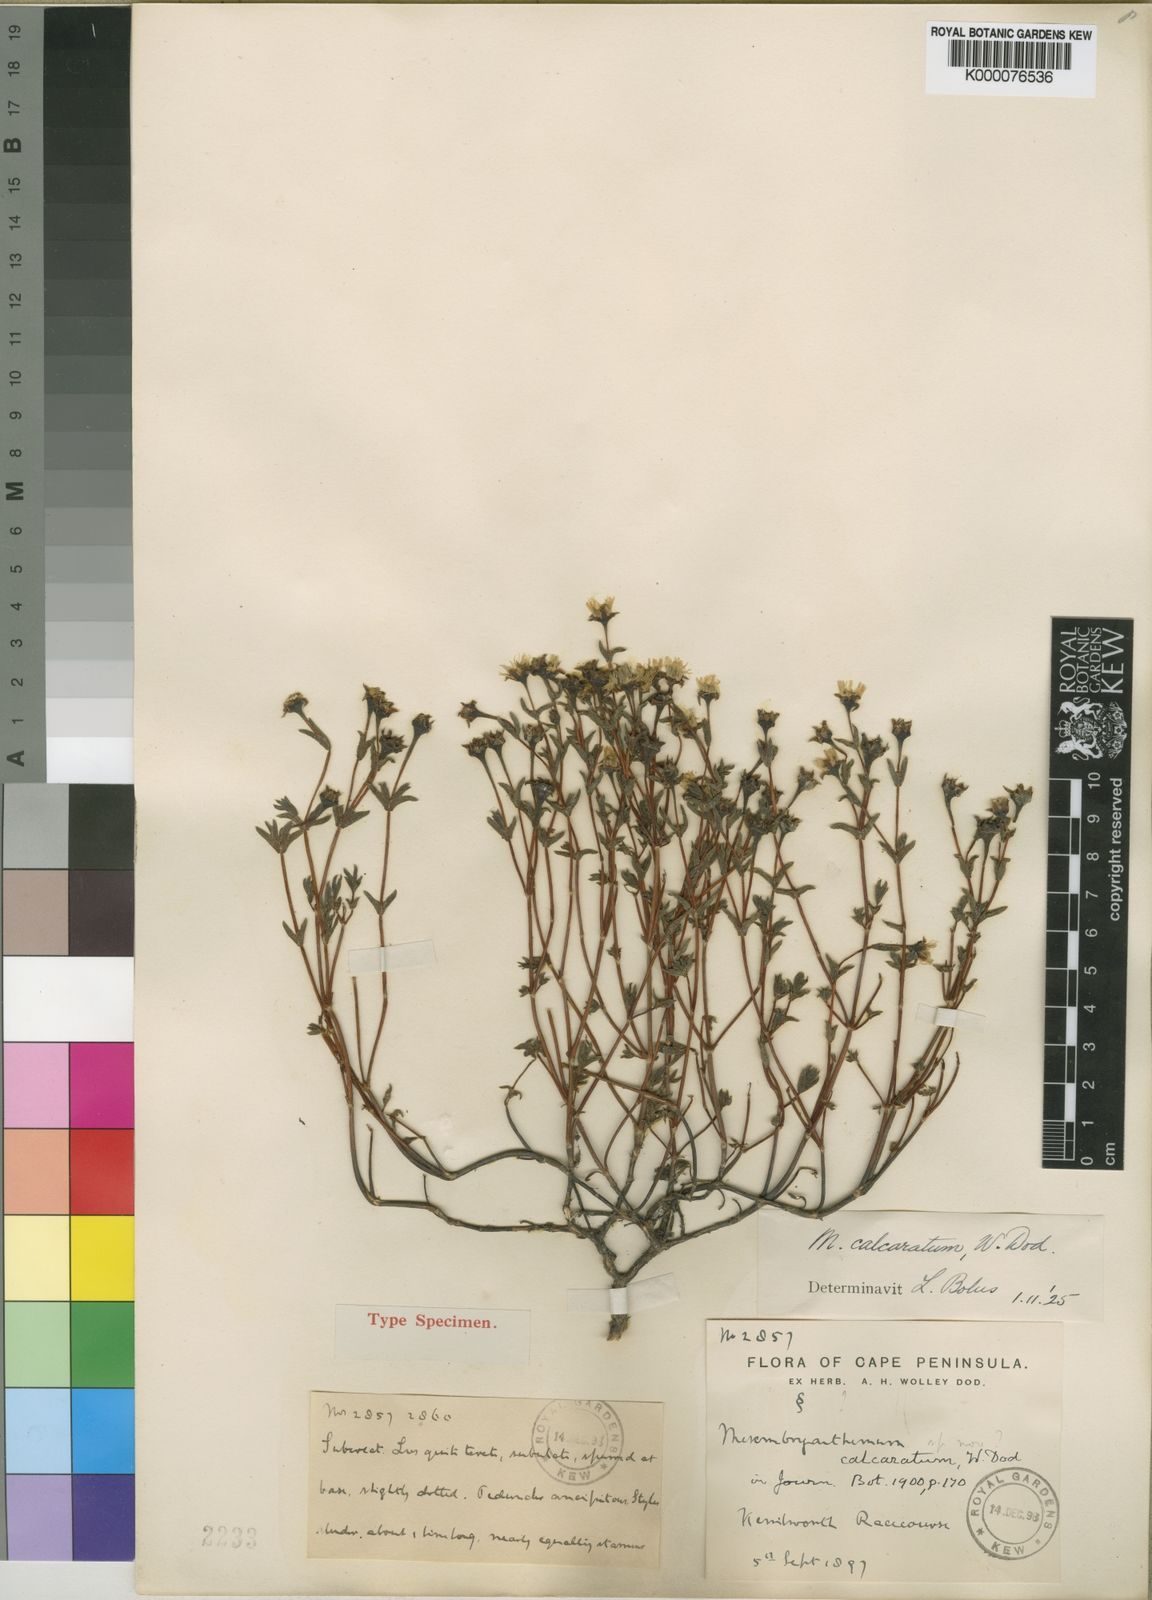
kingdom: Plantae
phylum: Tracheophyta
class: Magnoliopsida
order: Caryophyllales
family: Aizoaceae
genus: Lampranthus
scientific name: Lampranthus calcaratus
